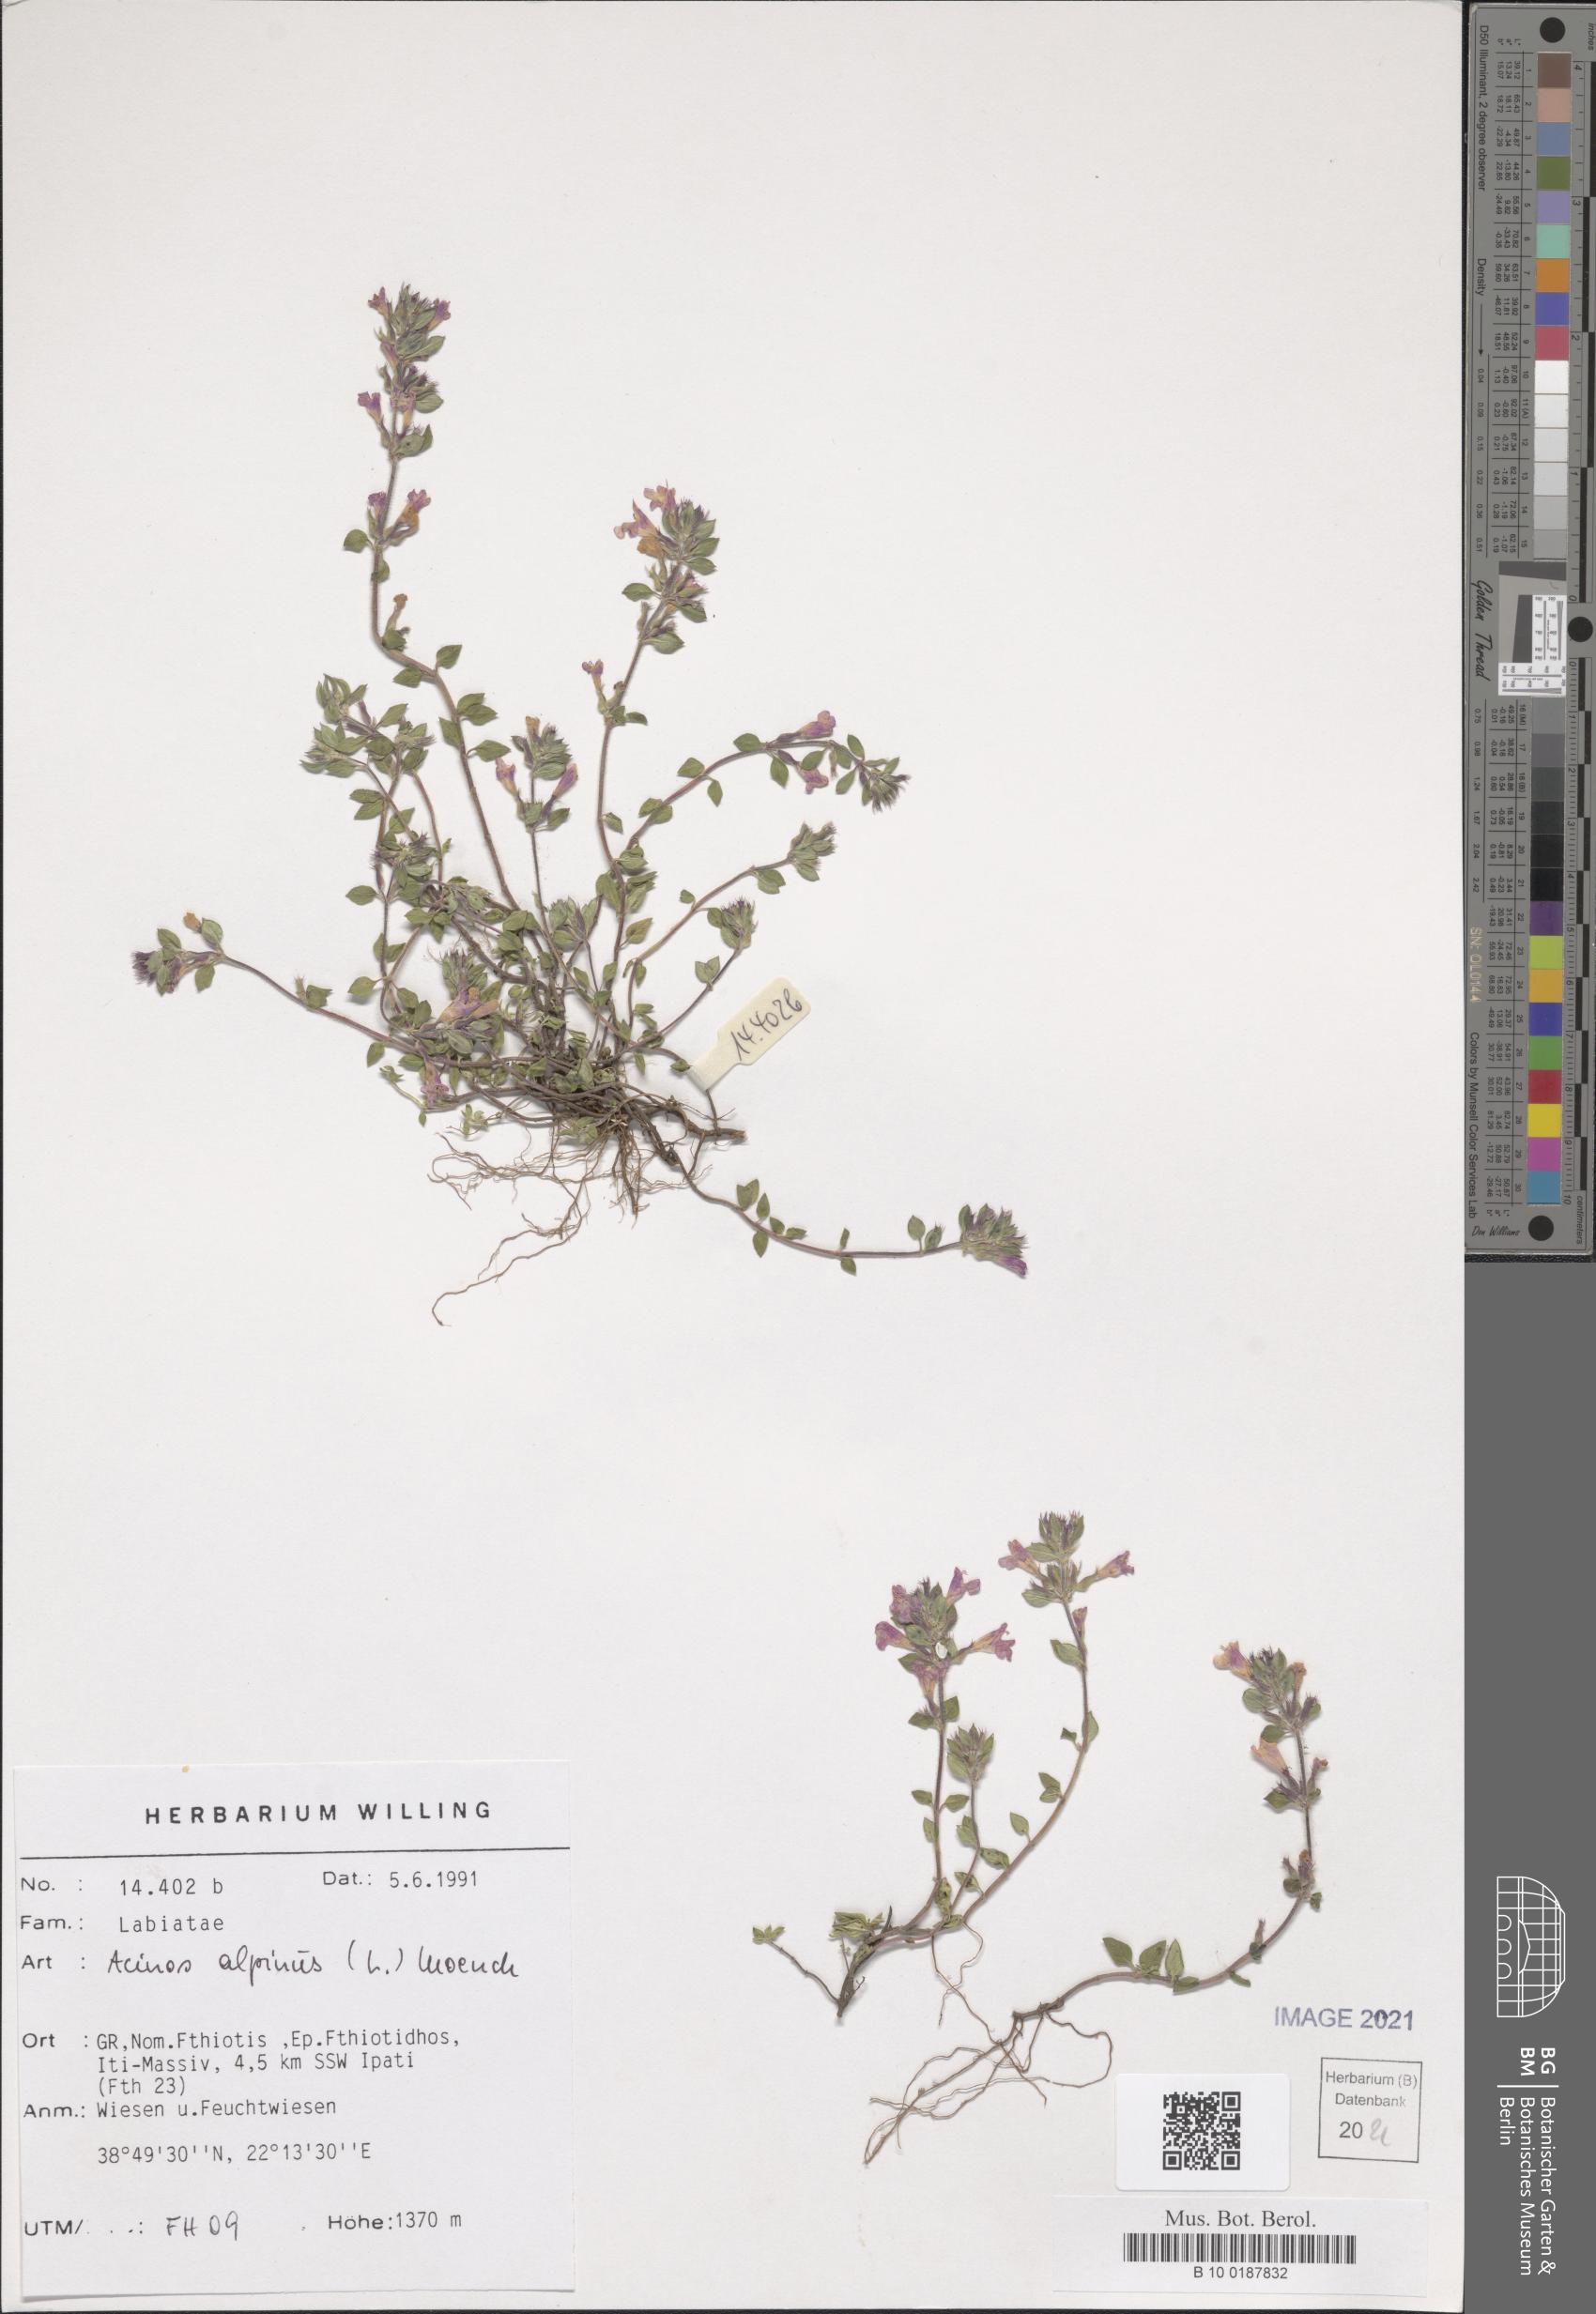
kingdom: Plantae
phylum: Tracheophyta
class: Magnoliopsida
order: Lamiales
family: Lamiaceae
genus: Clinopodium
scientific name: Clinopodium alpinum
